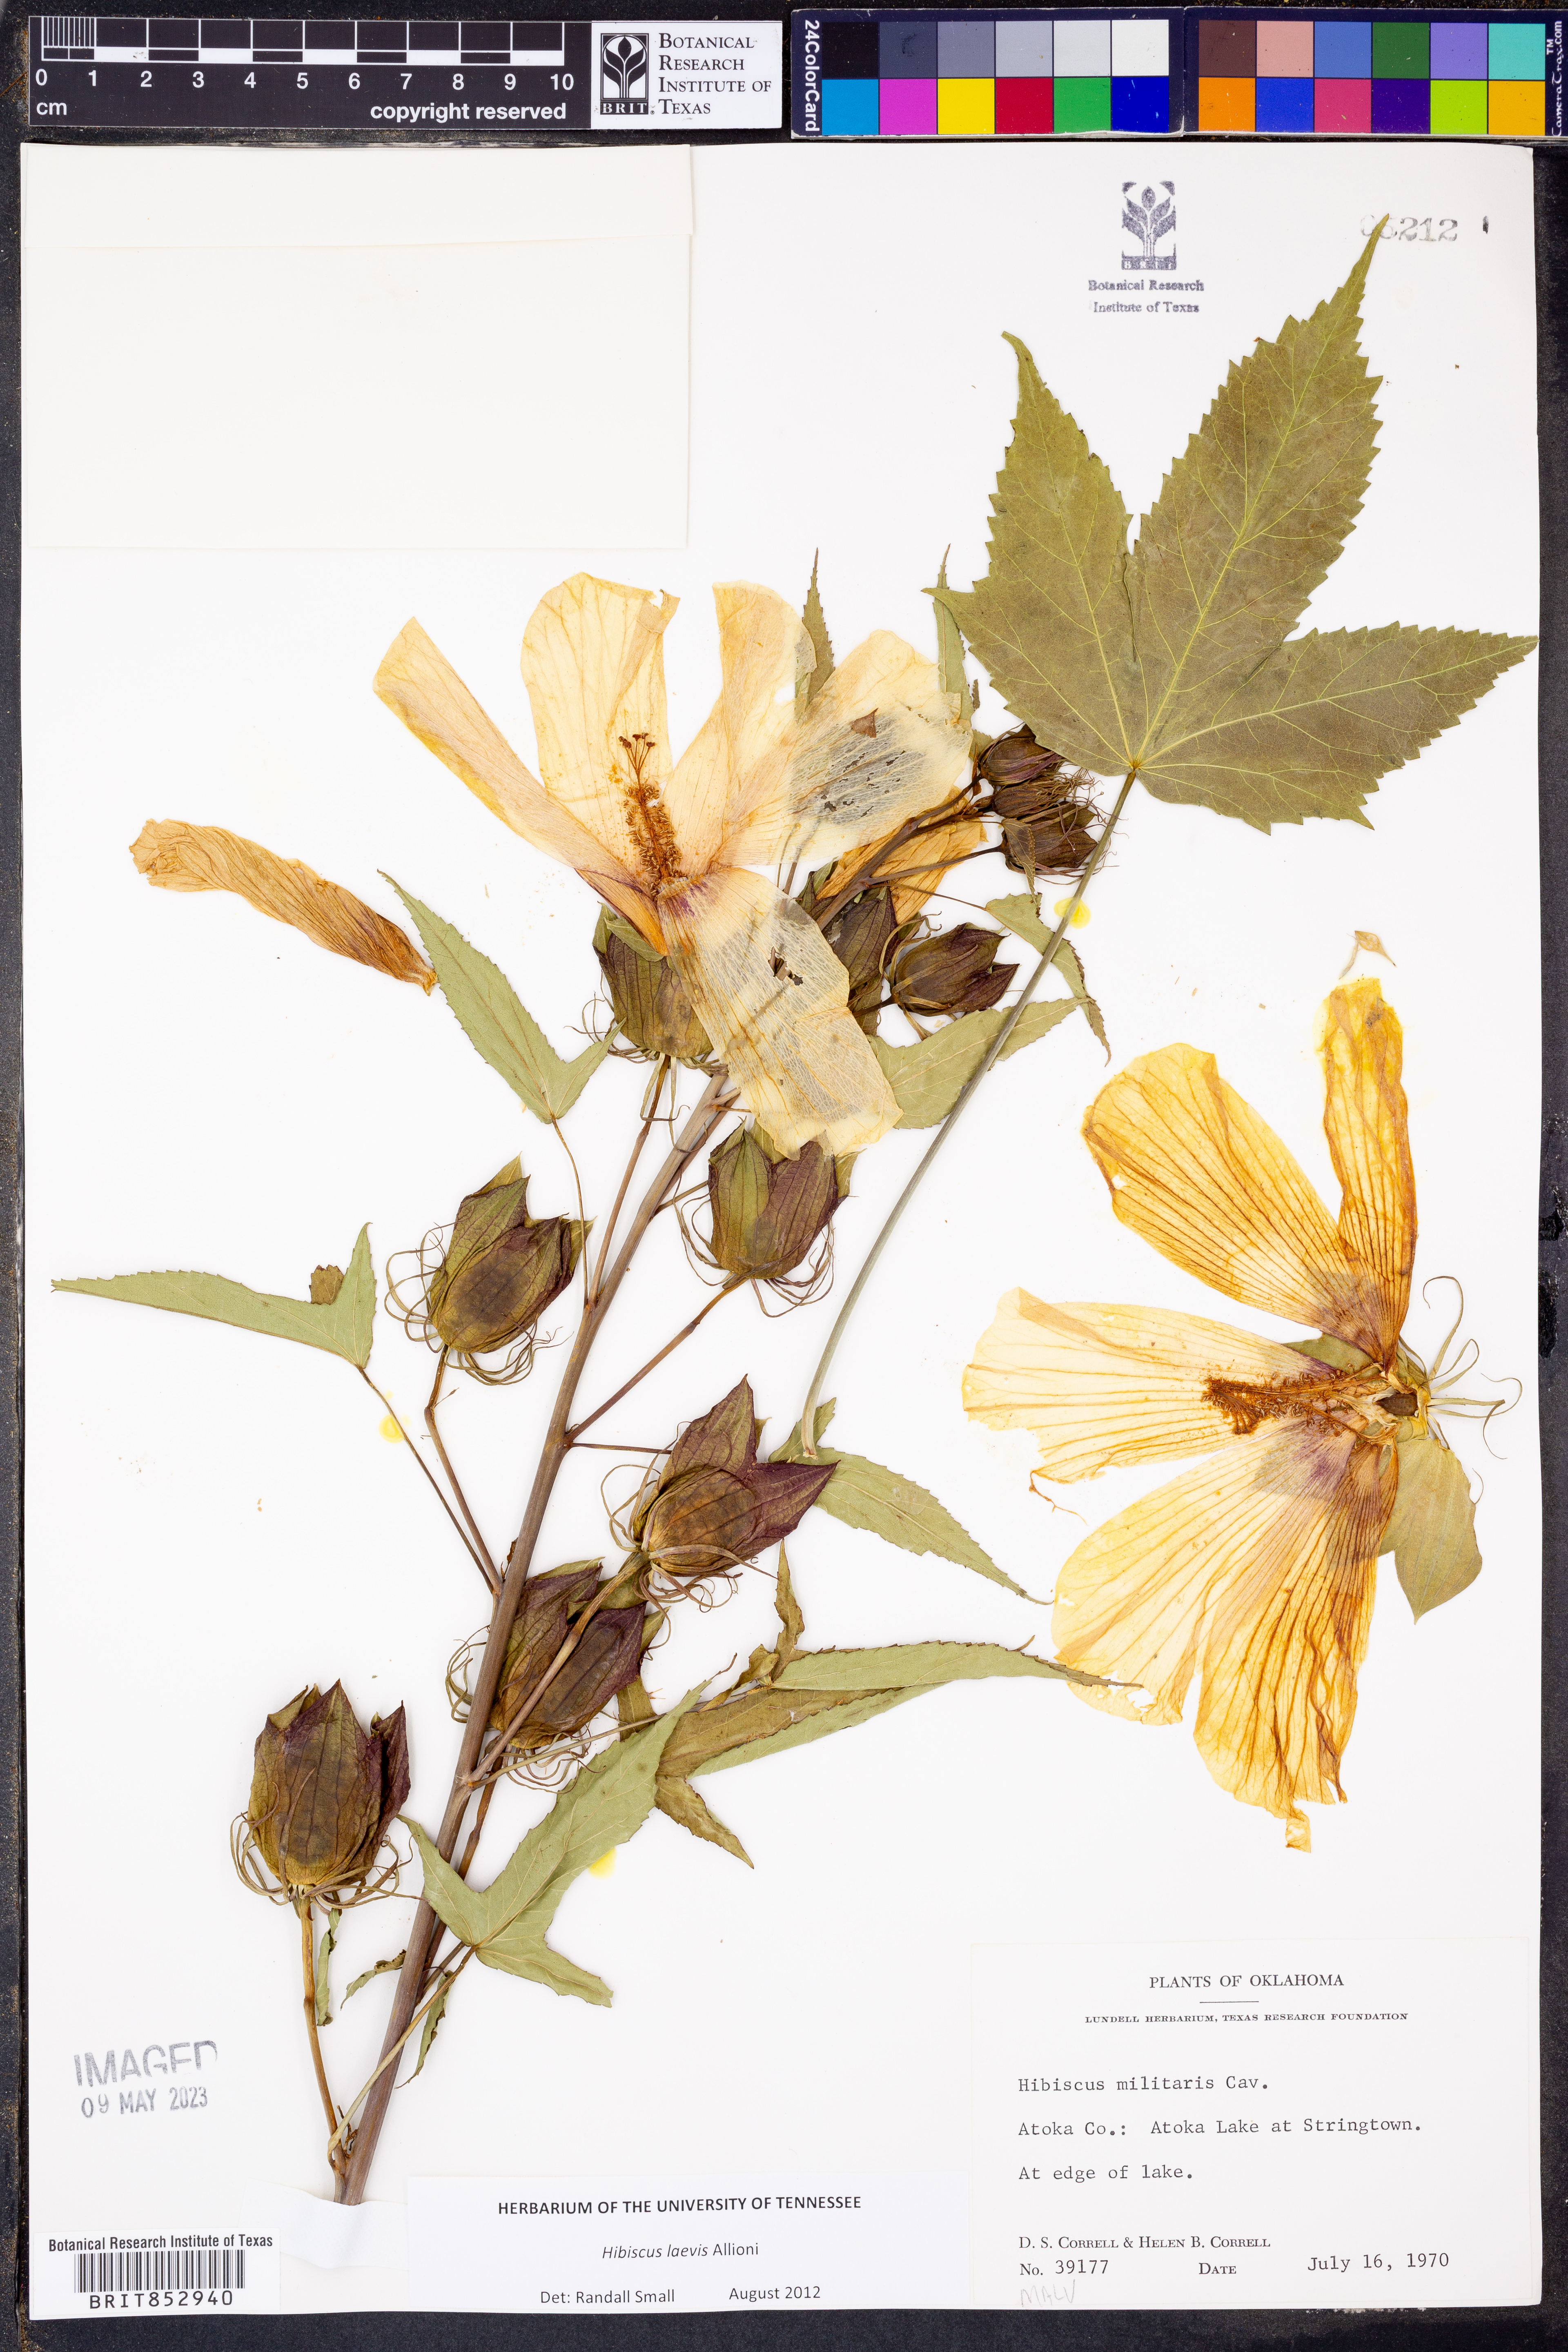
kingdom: Plantae
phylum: Tracheophyta
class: Magnoliopsida
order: Malvales
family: Malvaceae
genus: Hibiscus
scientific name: Hibiscus laevis
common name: Scarlet rose-mallow
